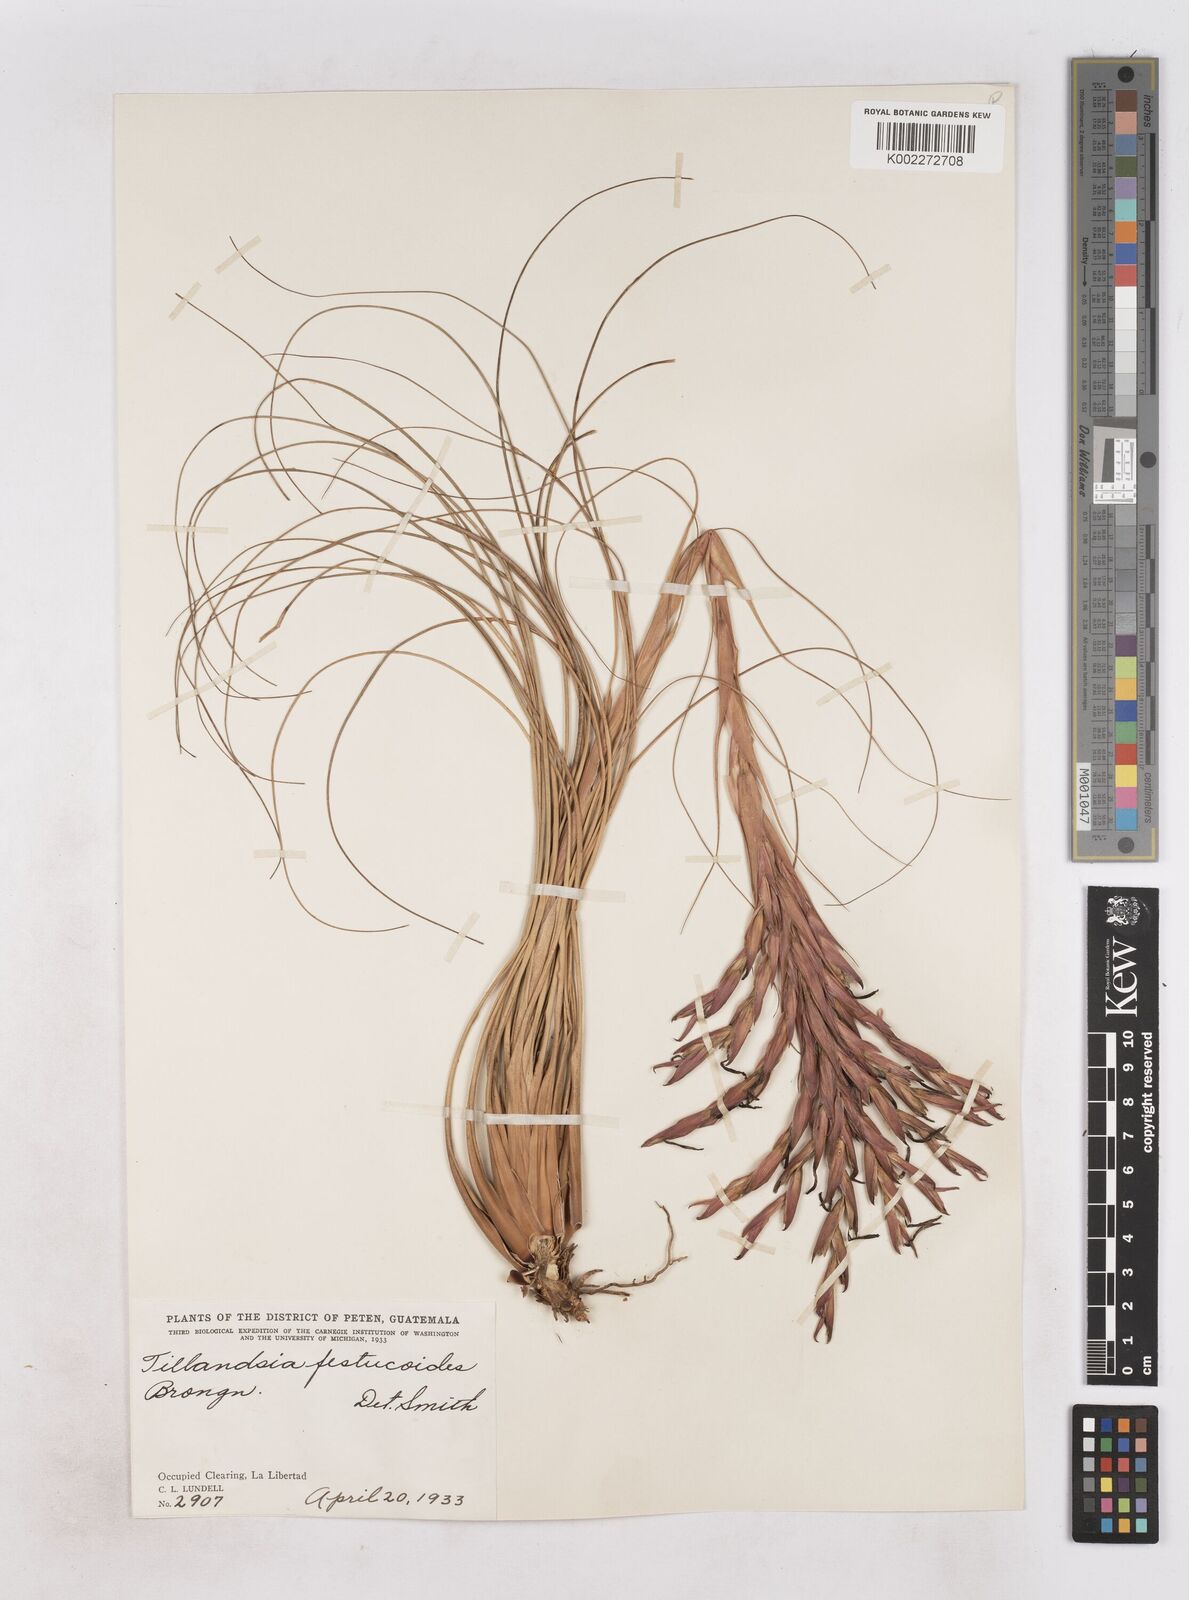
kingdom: Plantae
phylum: Tracheophyta
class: Liliopsida
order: Poales
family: Bromeliaceae
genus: Tillandsia
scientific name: Tillandsia festucoides
